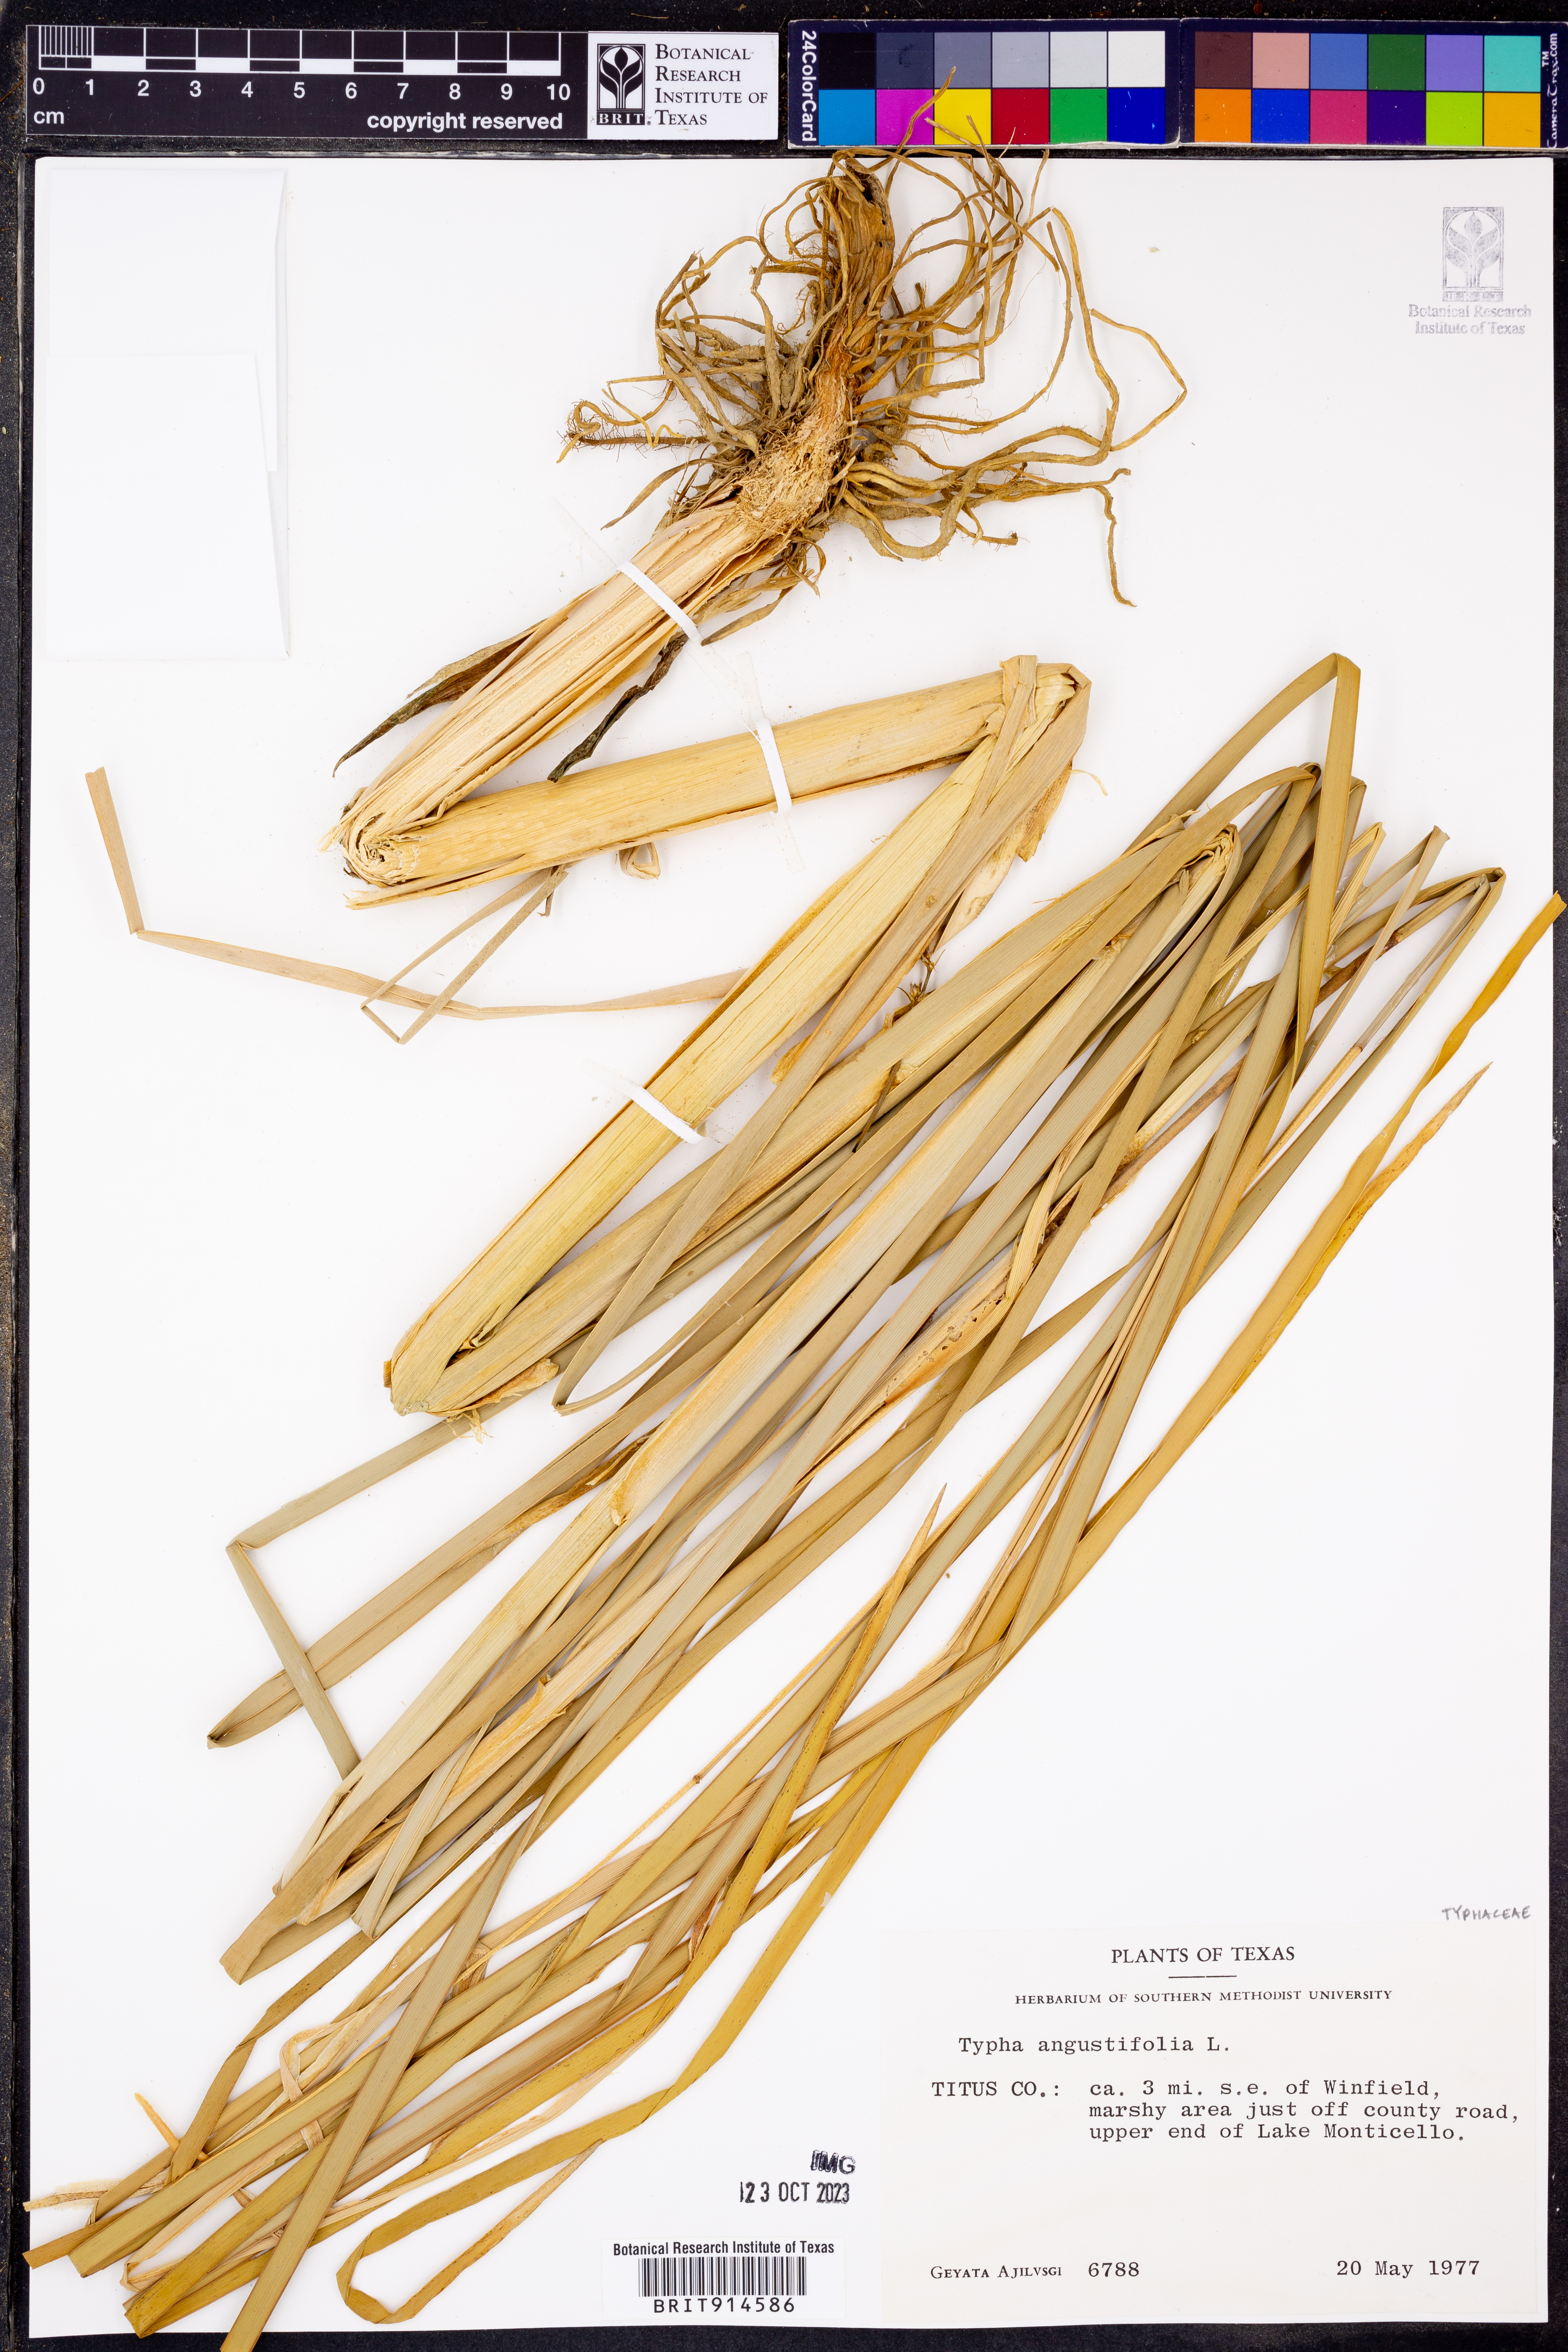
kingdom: Plantae
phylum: Tracheophyta
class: Liliopsida
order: Poales
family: Typhaceae
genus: Typha
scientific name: Typha angustifolia
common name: Lesser bulrush
